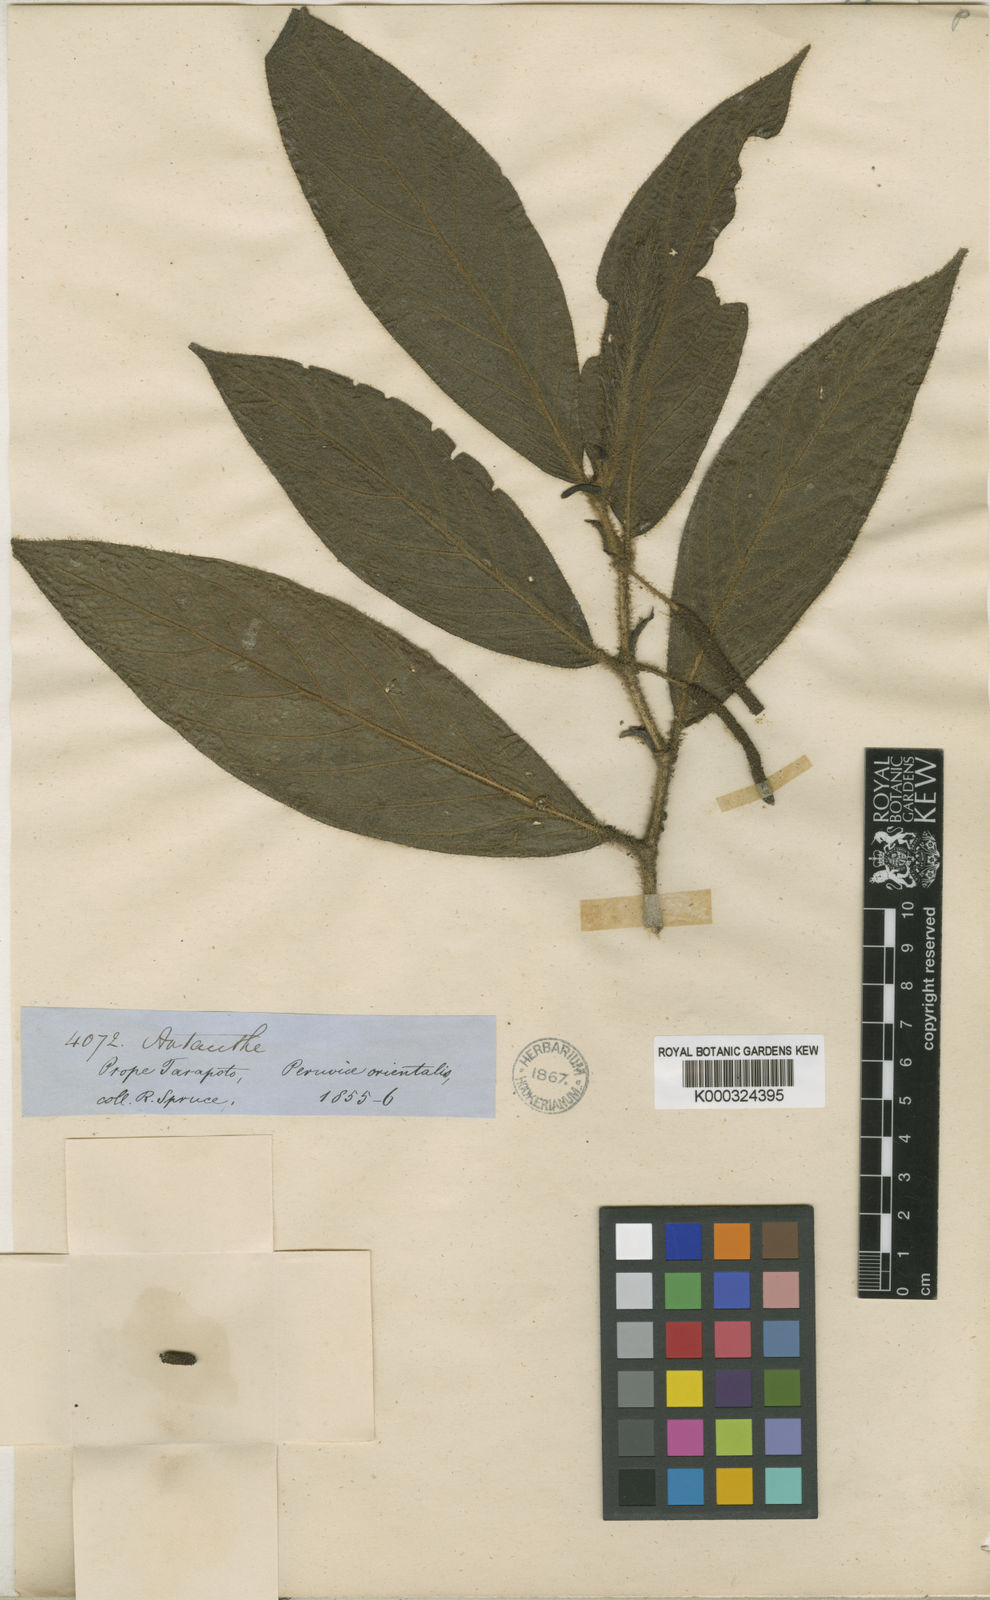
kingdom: Plantae
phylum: Tracheophyta
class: Magnoliopsida
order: Piperales
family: Piperaceae
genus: Piper
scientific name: Piper spruceanum
